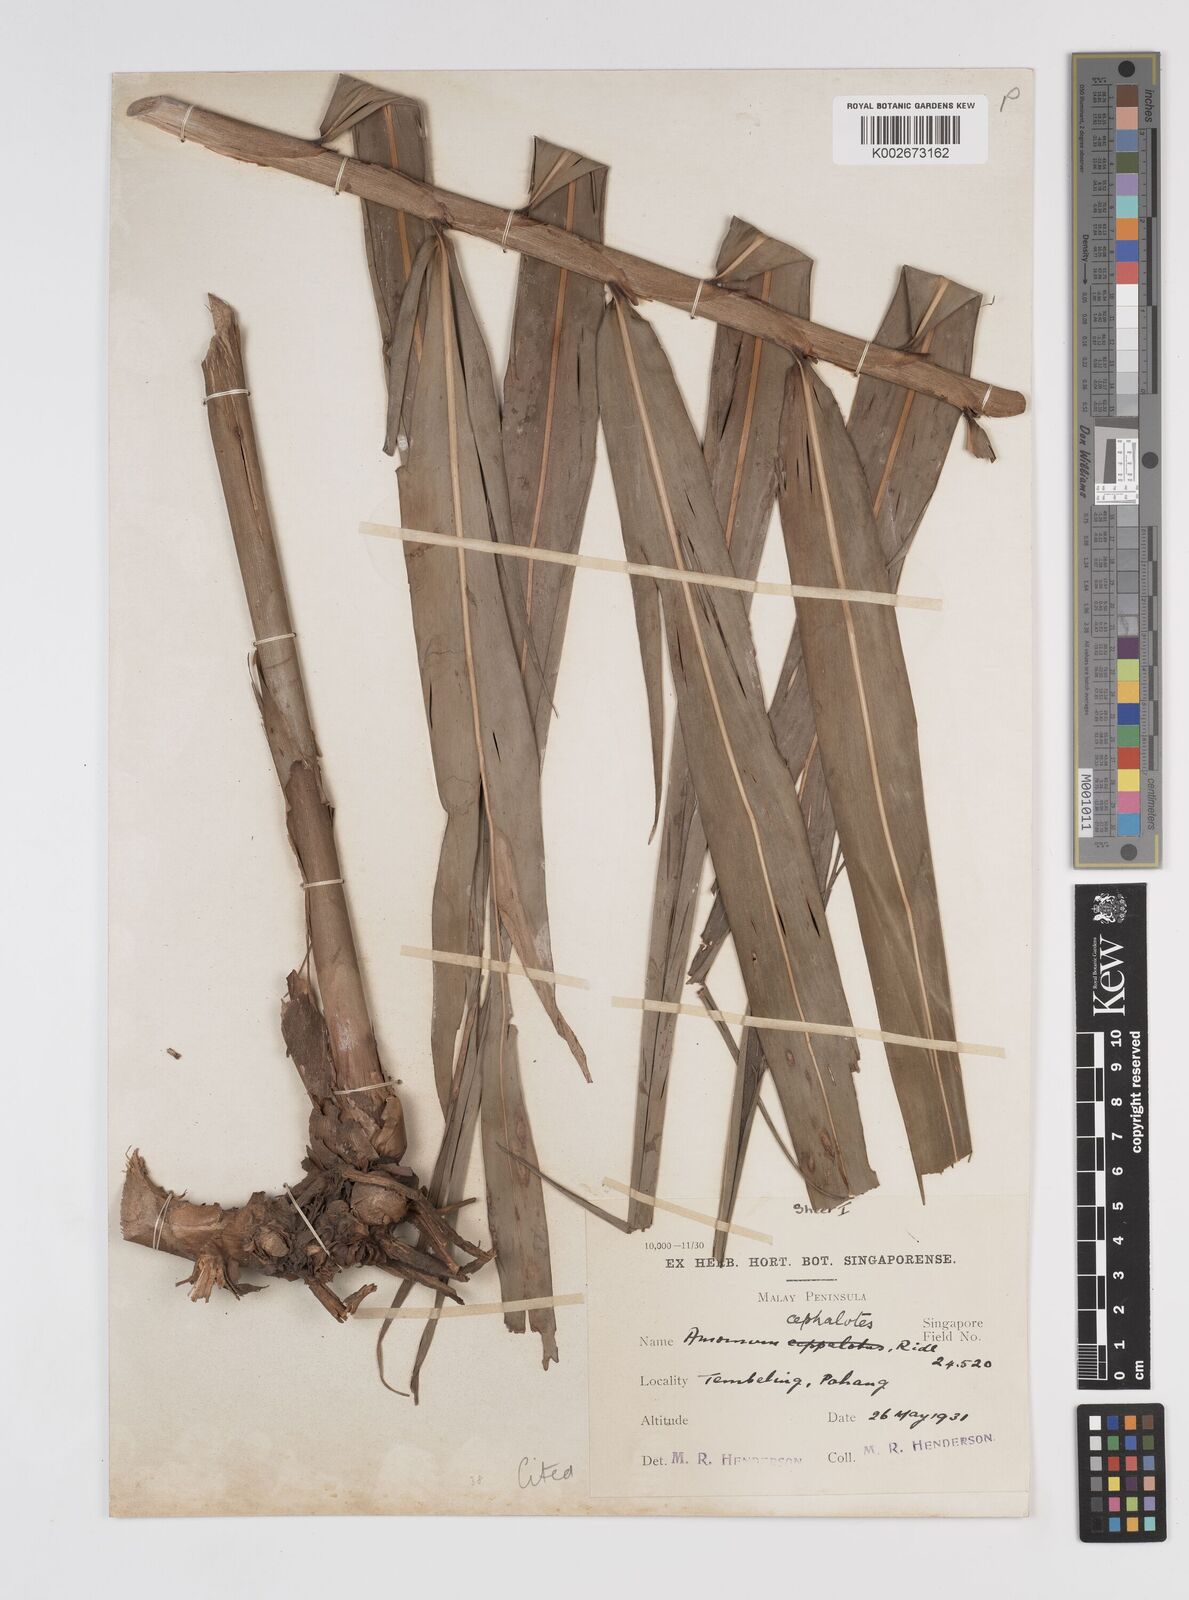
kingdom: Plantae
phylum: Tracheophyta
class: Liliopsida
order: Zingiberales
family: Zingiberaceae
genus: Amomum
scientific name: Amomum cephalotes
